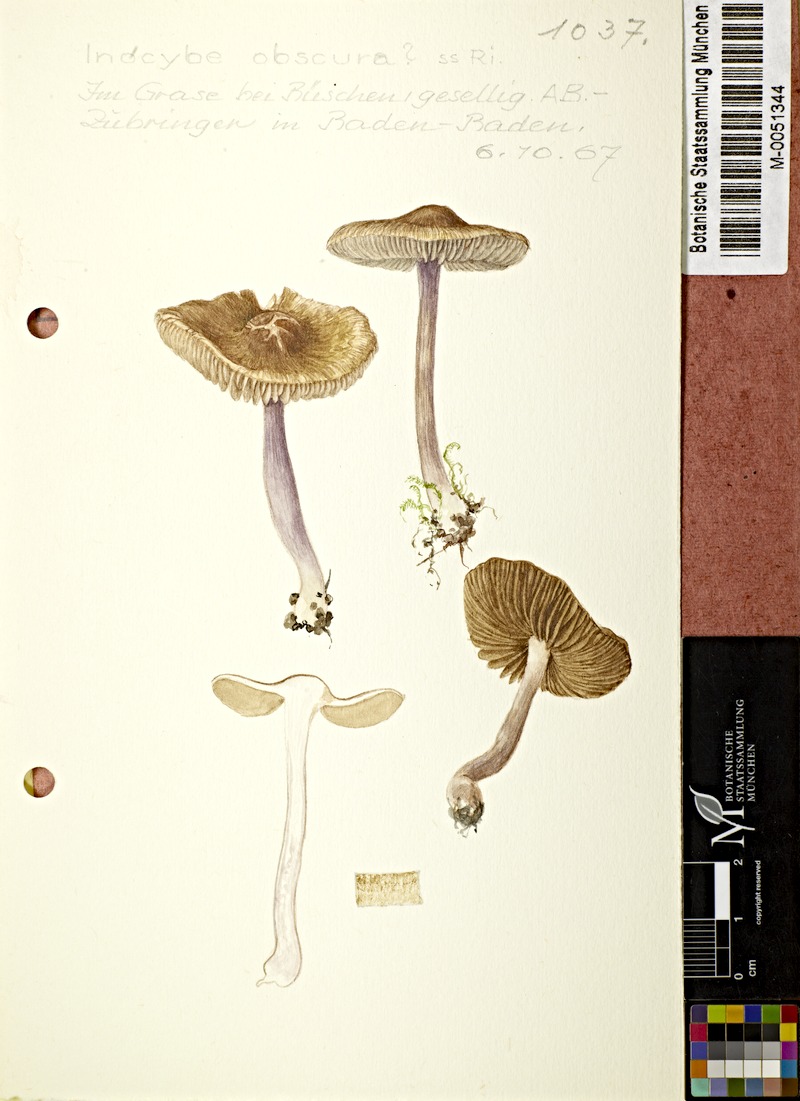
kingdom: Fungi
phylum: Basidiomycota
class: Agaricomycetes
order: Agaricales
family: Inocybaceae
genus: Inocybe
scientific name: Inocybe cincinnata
